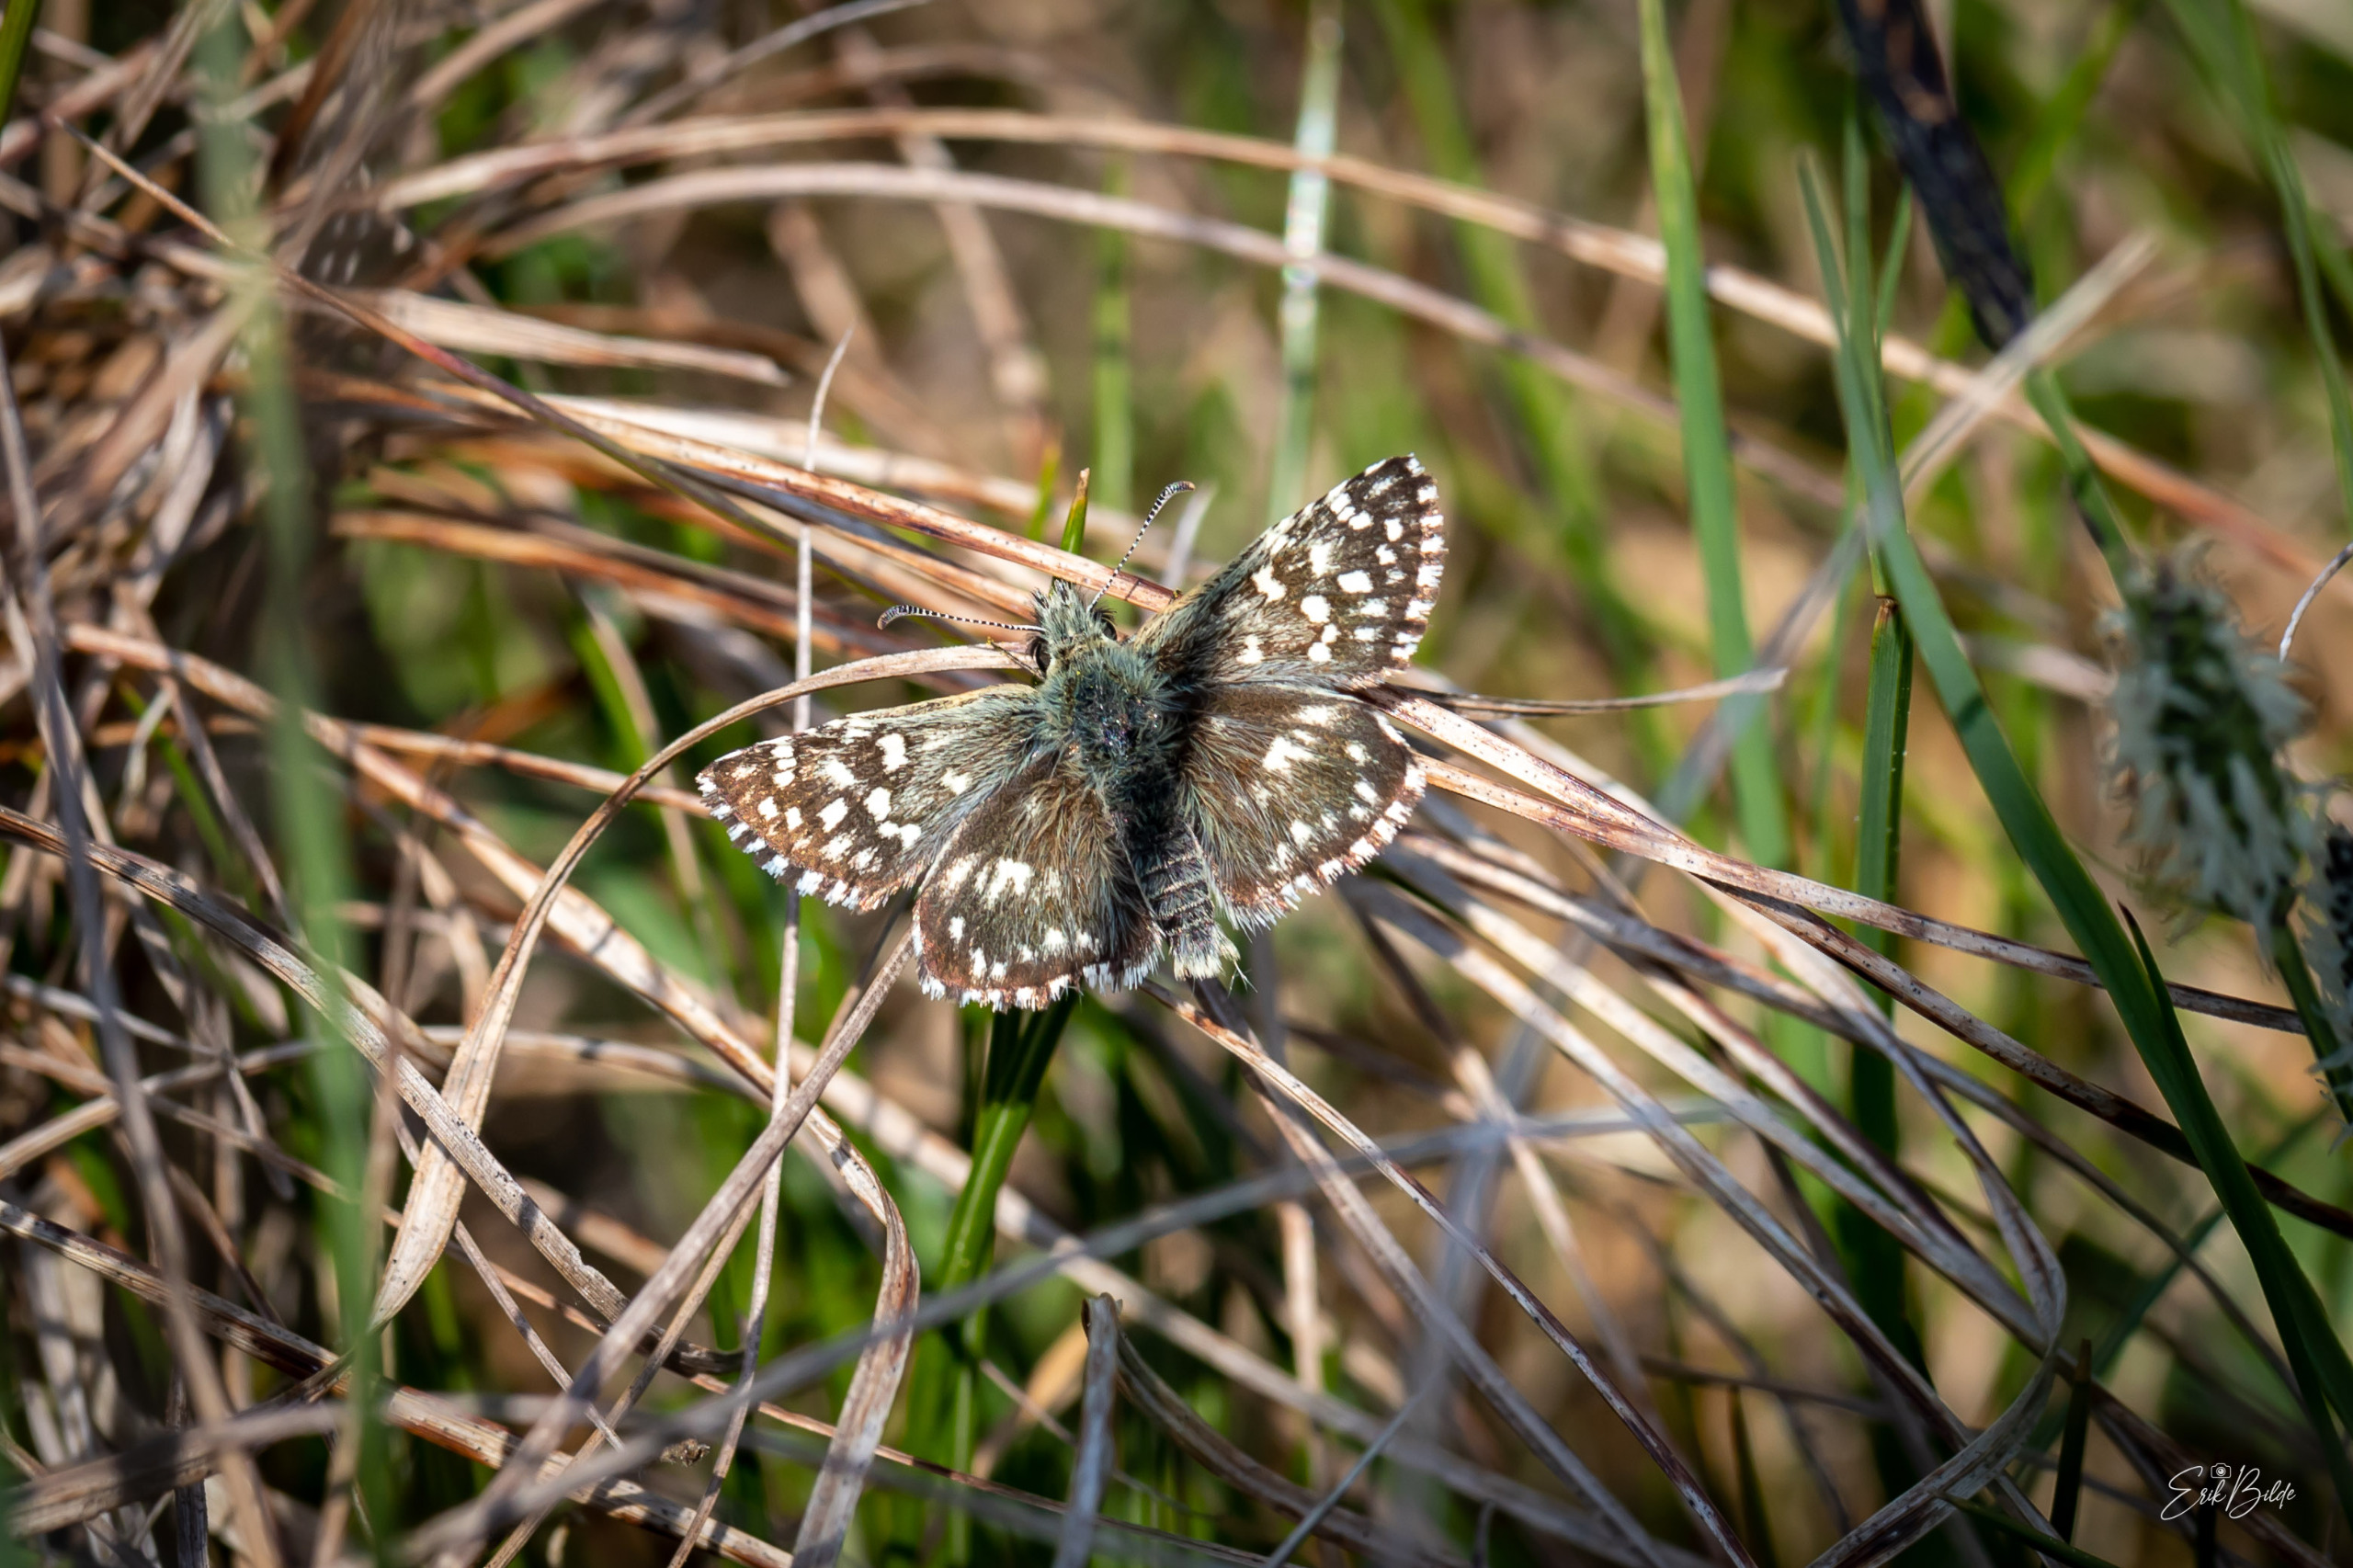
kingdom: Animalia
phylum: Arthropoda
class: Insecta
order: Lepidoptera
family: Hesperiidae
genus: Pyrgus
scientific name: Pyrgus malvae
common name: Spættet bredpande
